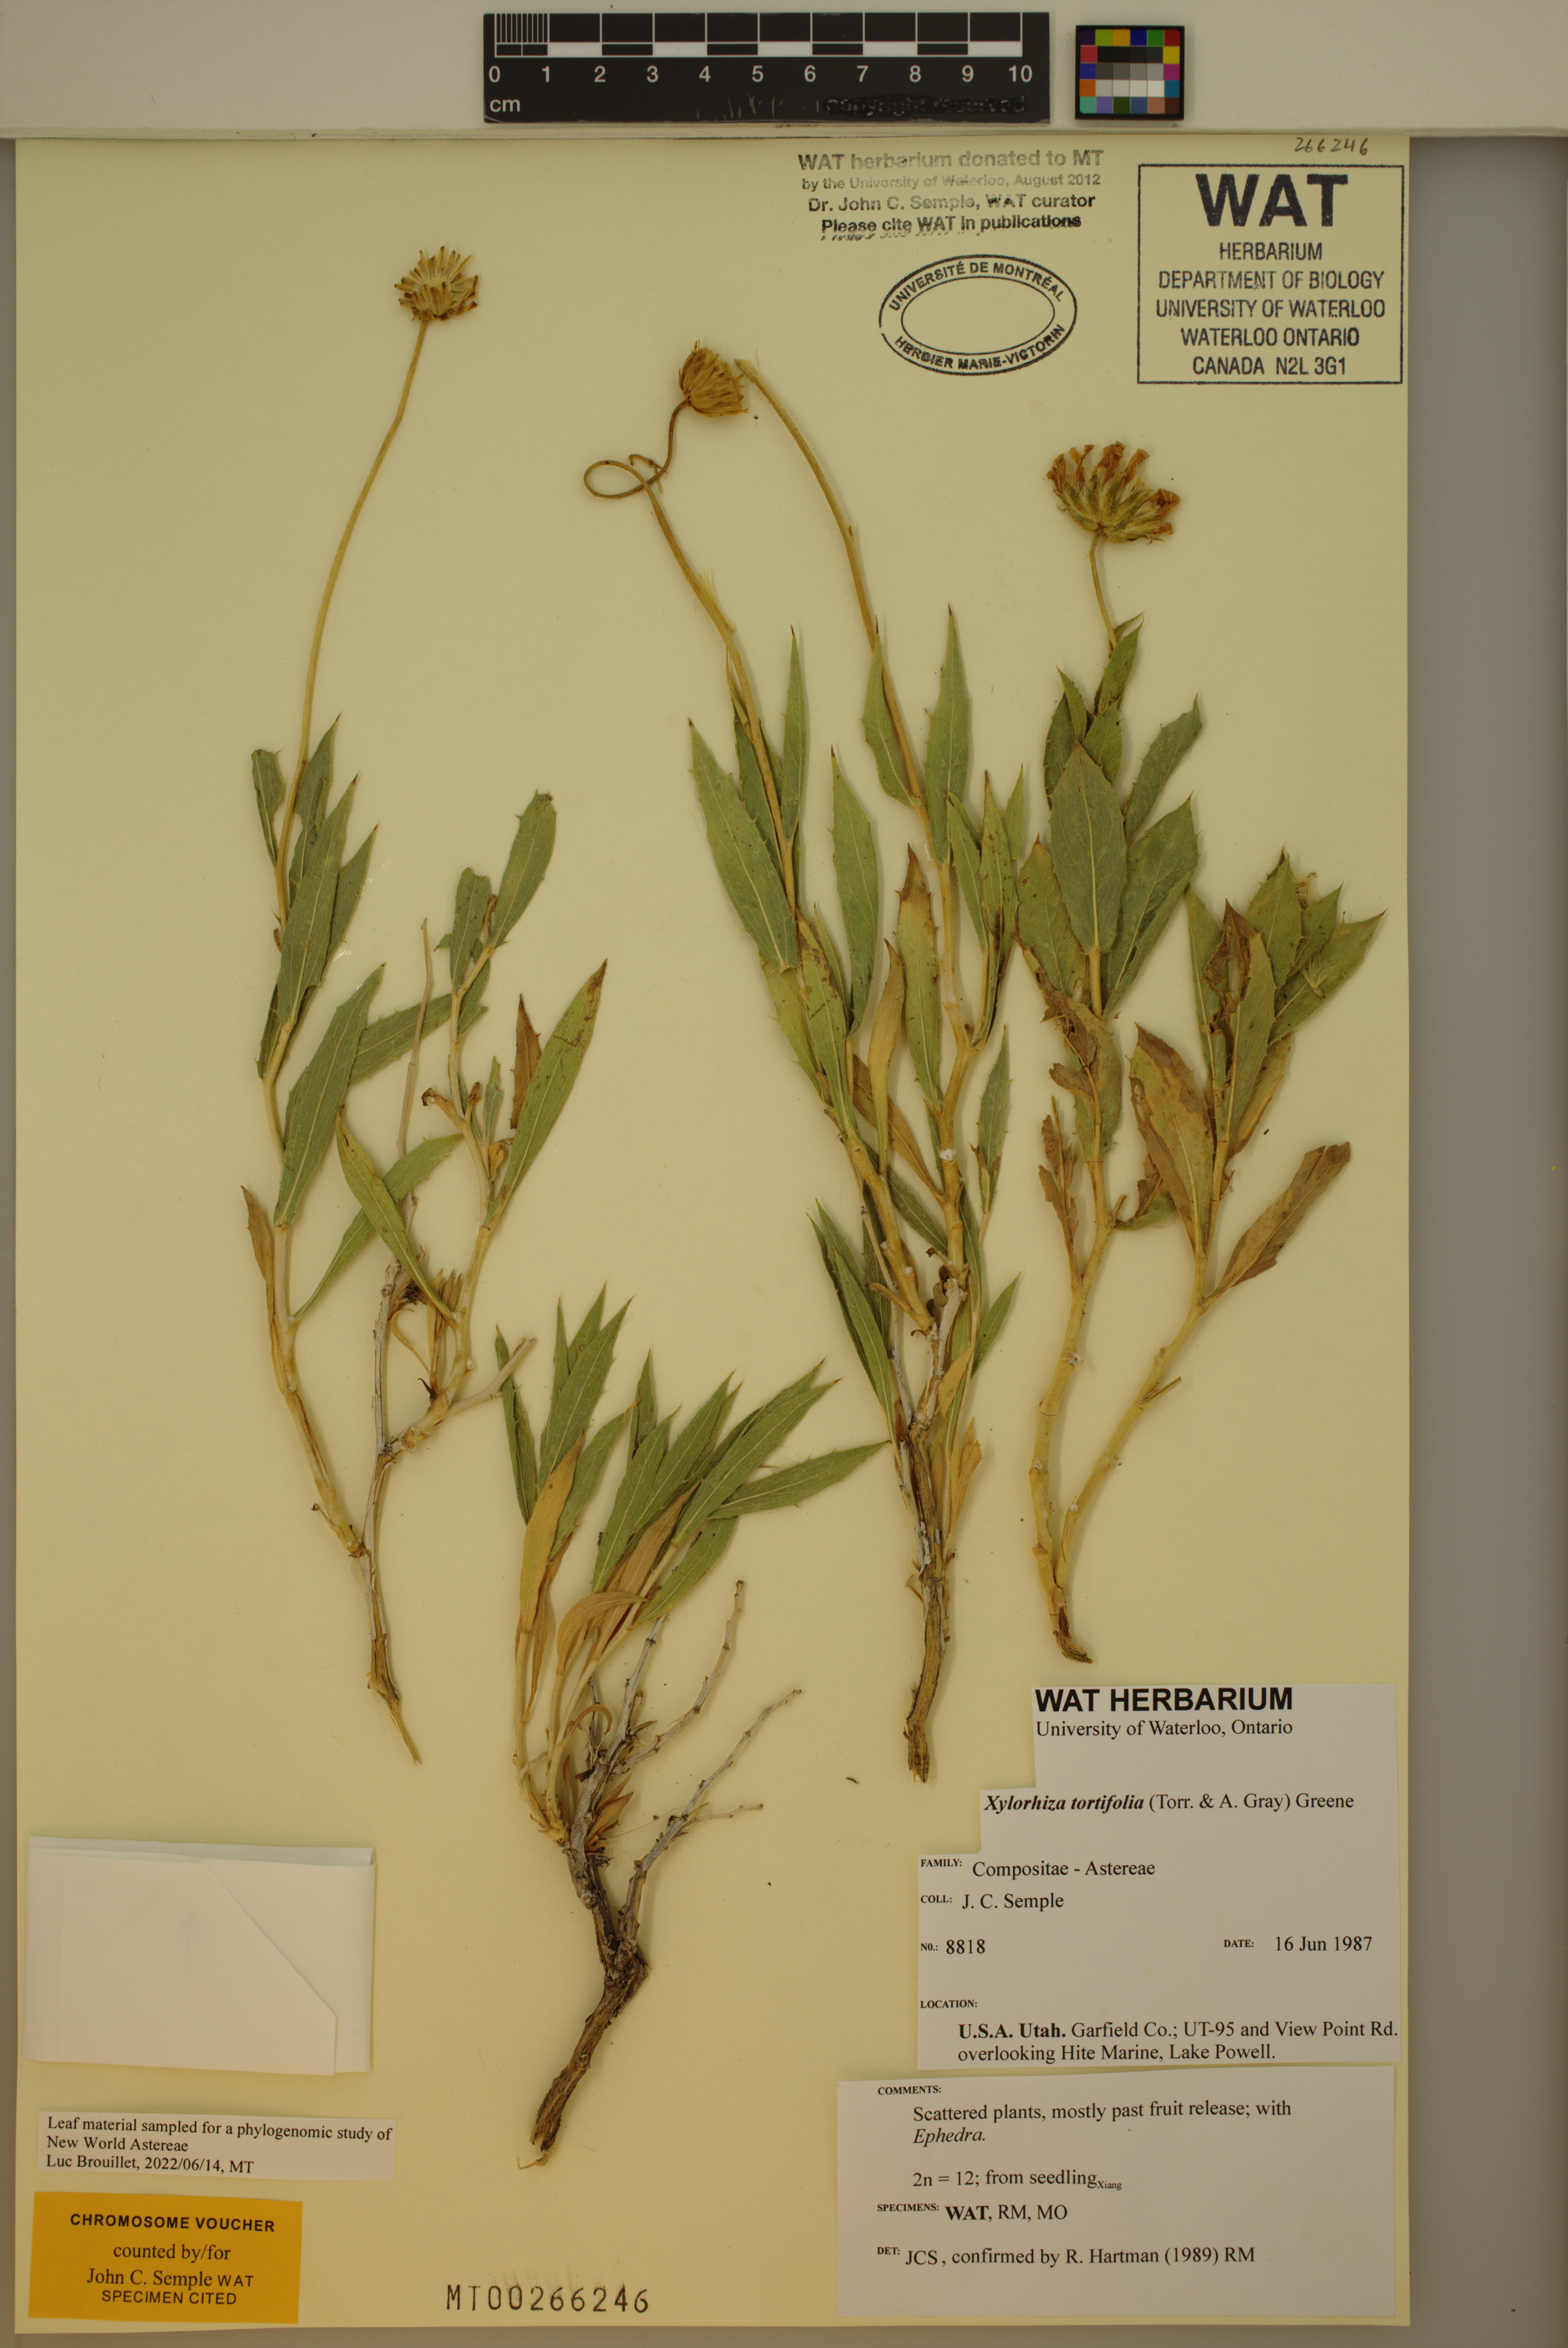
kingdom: Plantae
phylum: Tracheophyta
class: Magnoliopsida
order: Asterales
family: Asteraceae
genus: Xylorhiza
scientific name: Xylorhiza tortifolia
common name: Hurt-leaf woody-aster
